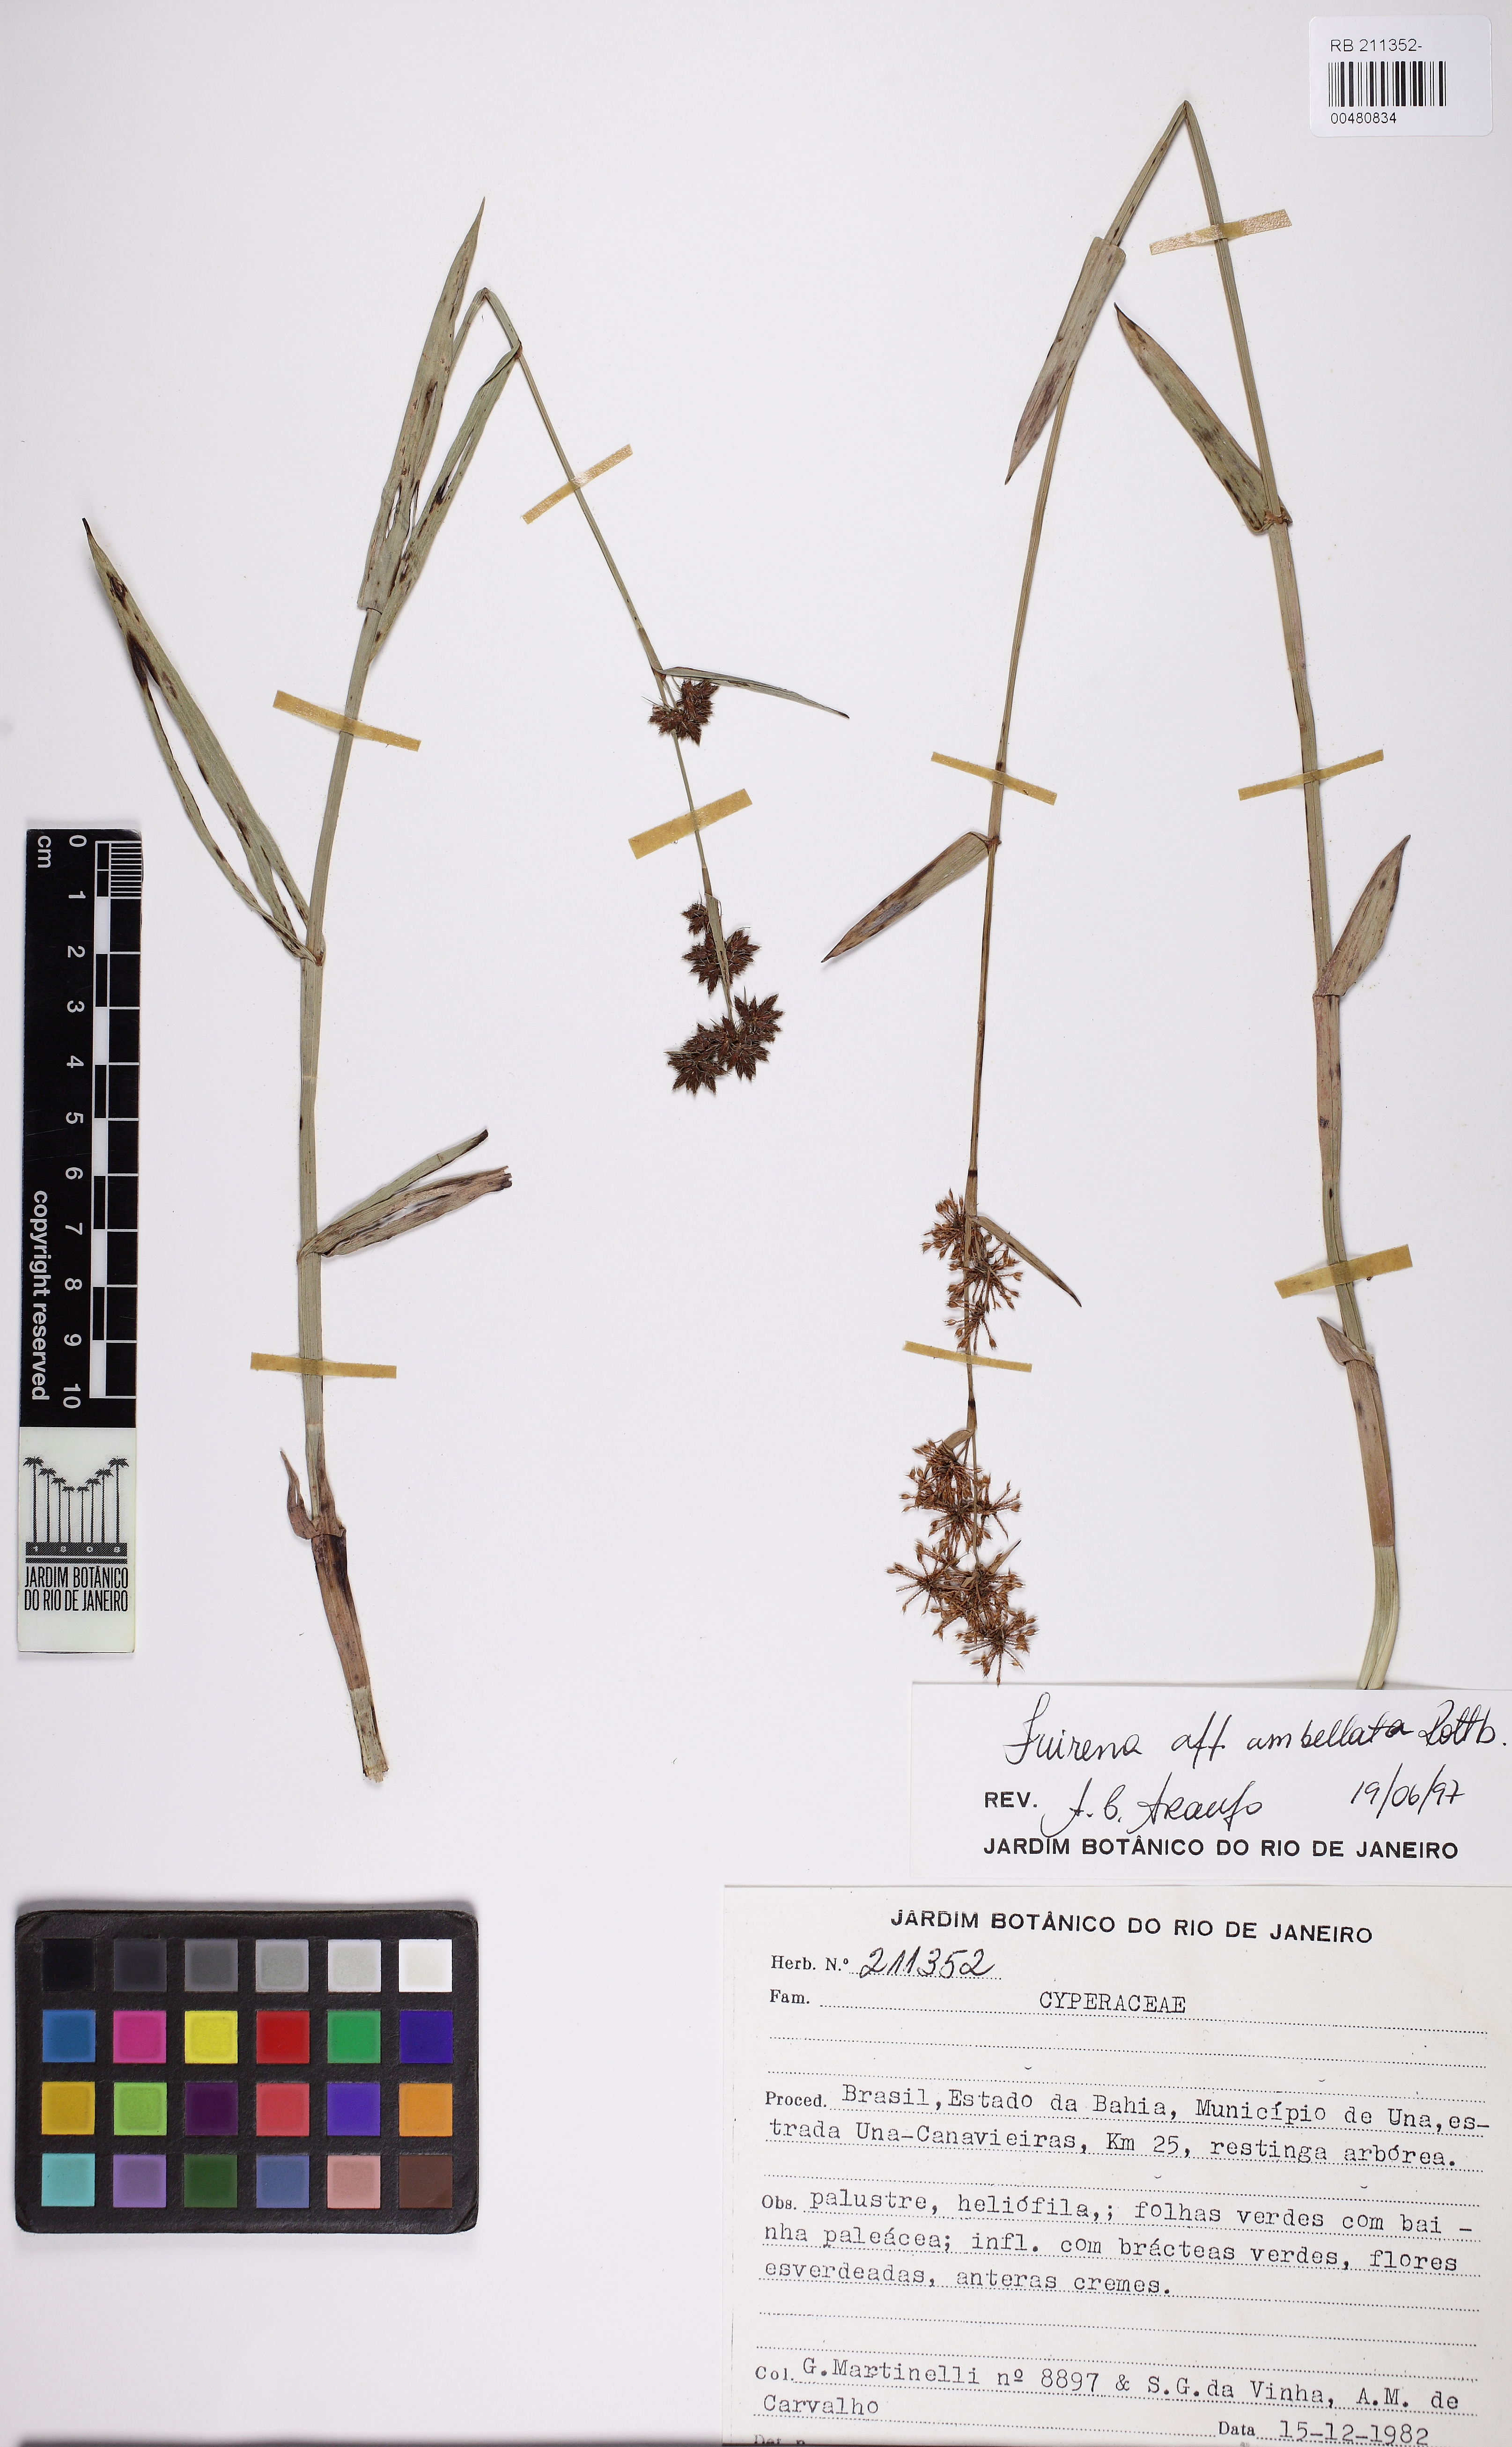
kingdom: Plantae
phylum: Tracheophyta
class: Liliopsida
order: Poales
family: Cyperaceae
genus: Fuirena
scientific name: Fuirena umbellata
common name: Yefen
